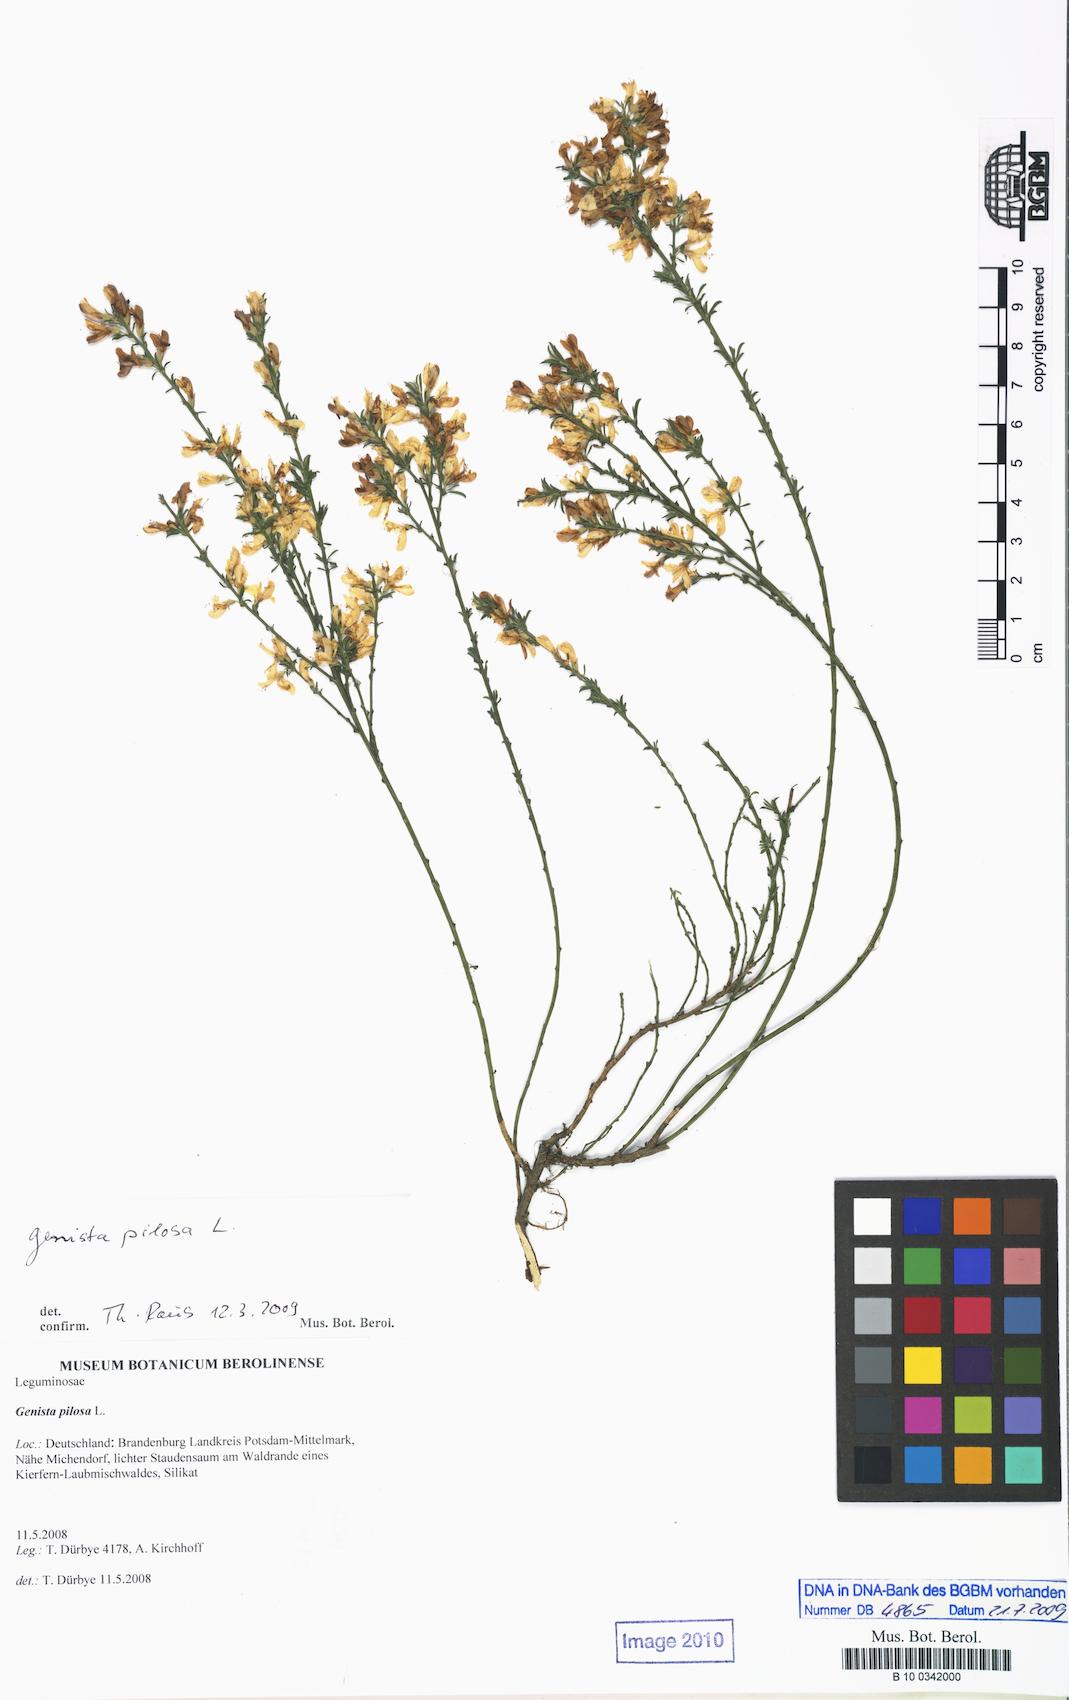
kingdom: Plantae
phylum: Tracheophyta
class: Magnoliopsida
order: Fabales
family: Fabaceae
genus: Genista
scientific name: Genista pilosa
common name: Hairy greenweed
